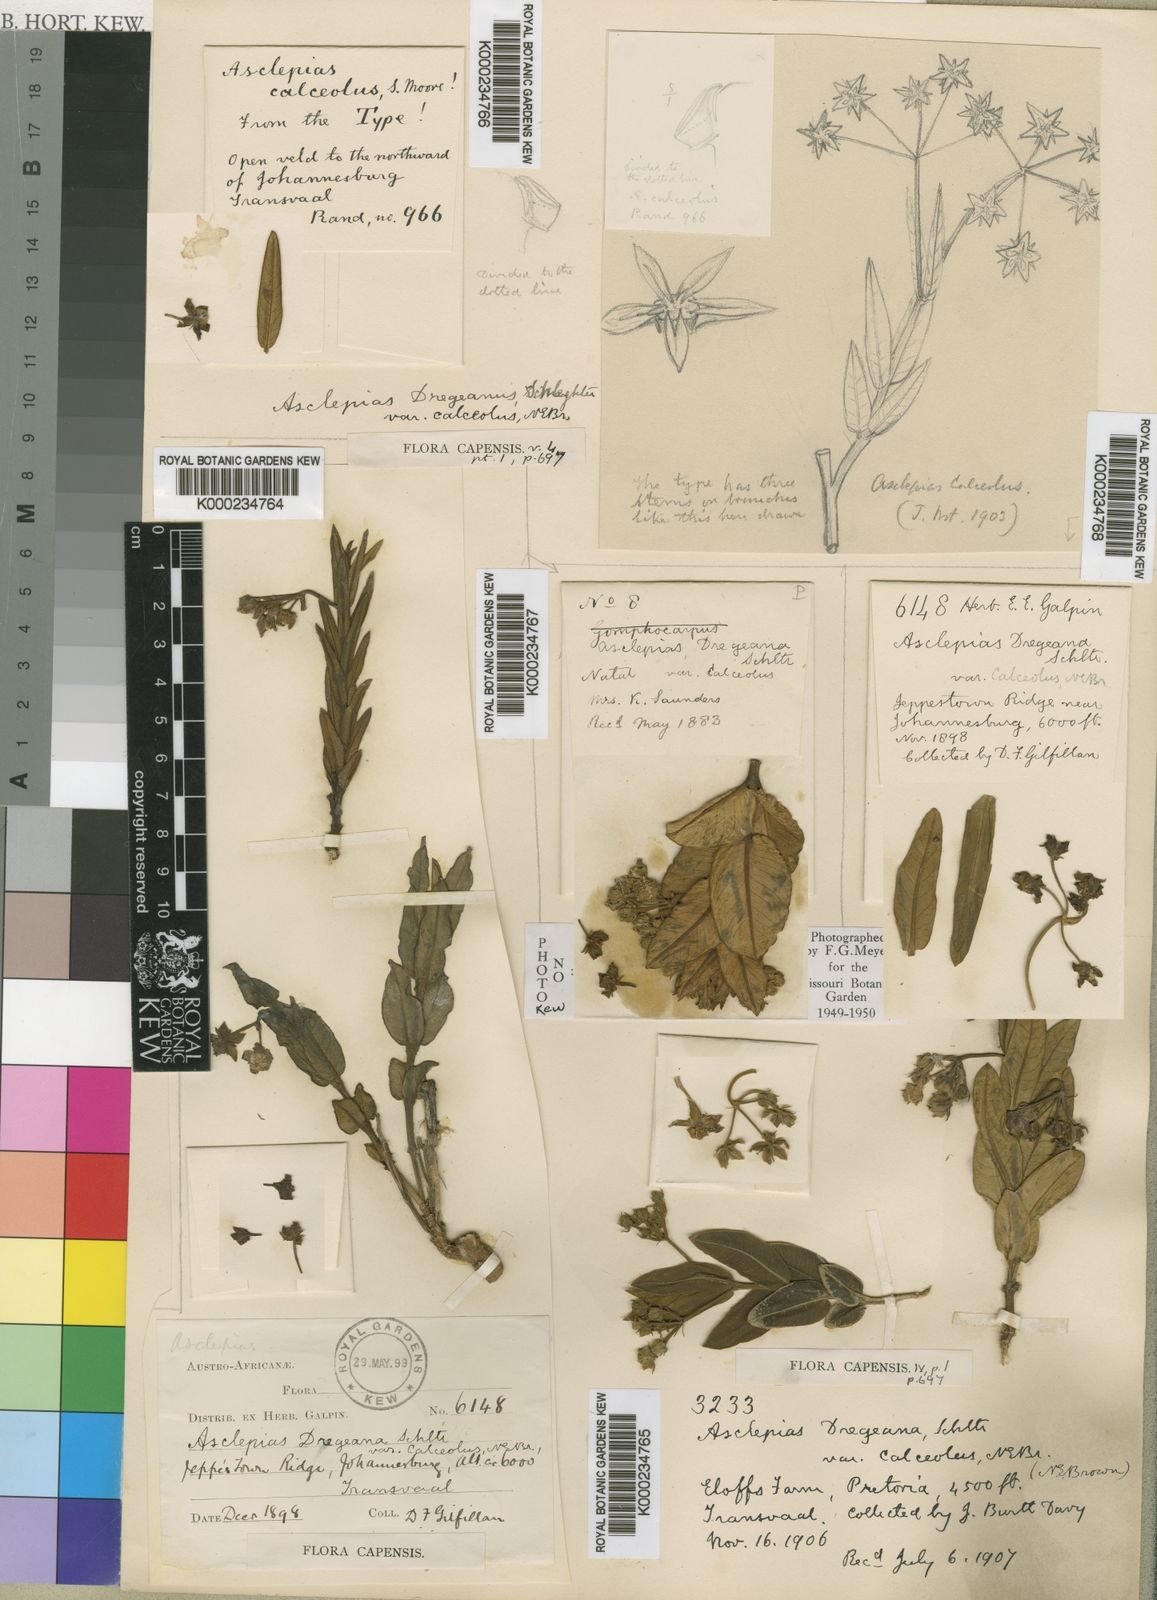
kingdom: Plantae
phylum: Tracheophyta
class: Magnoliopsida
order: Gentianales
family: Apocynaceae
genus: Asclepias
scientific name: Asclepias fulva
